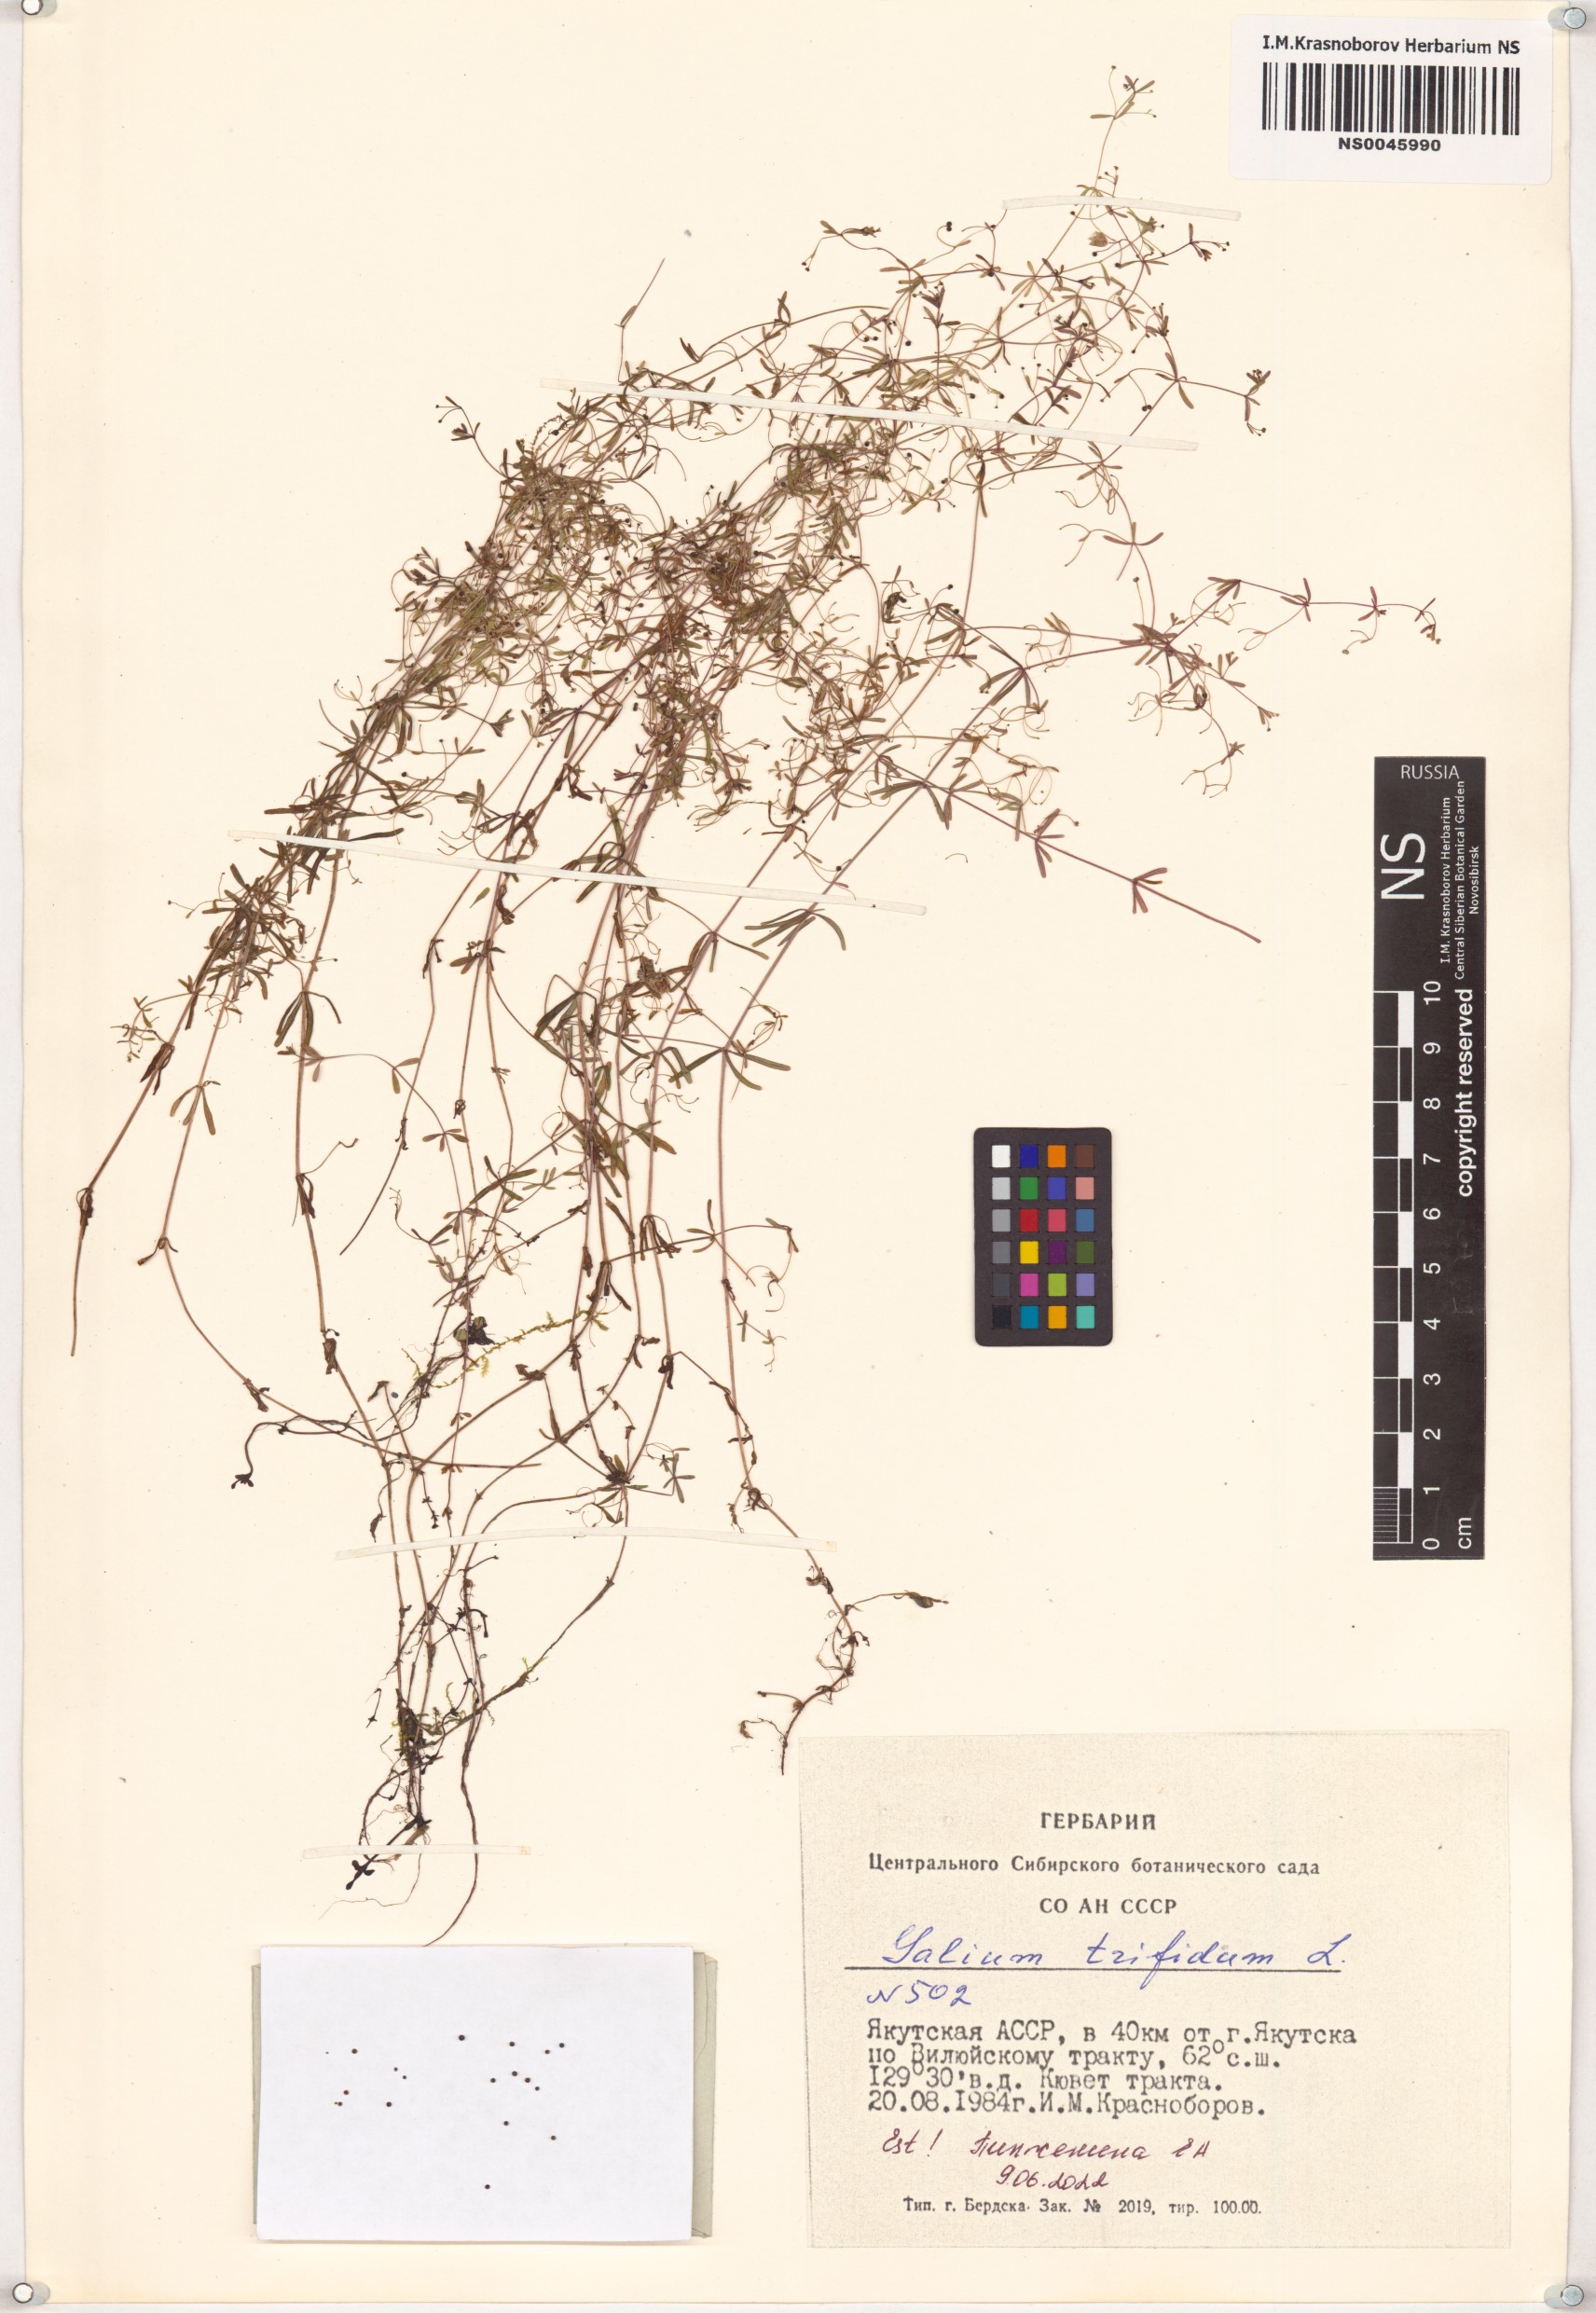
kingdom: Plantae
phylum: Tracheophyta
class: Magnoliopsida
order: Gentianales
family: Rubiaceae
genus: Galium
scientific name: Galium trifidum
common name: Small bedstraw
